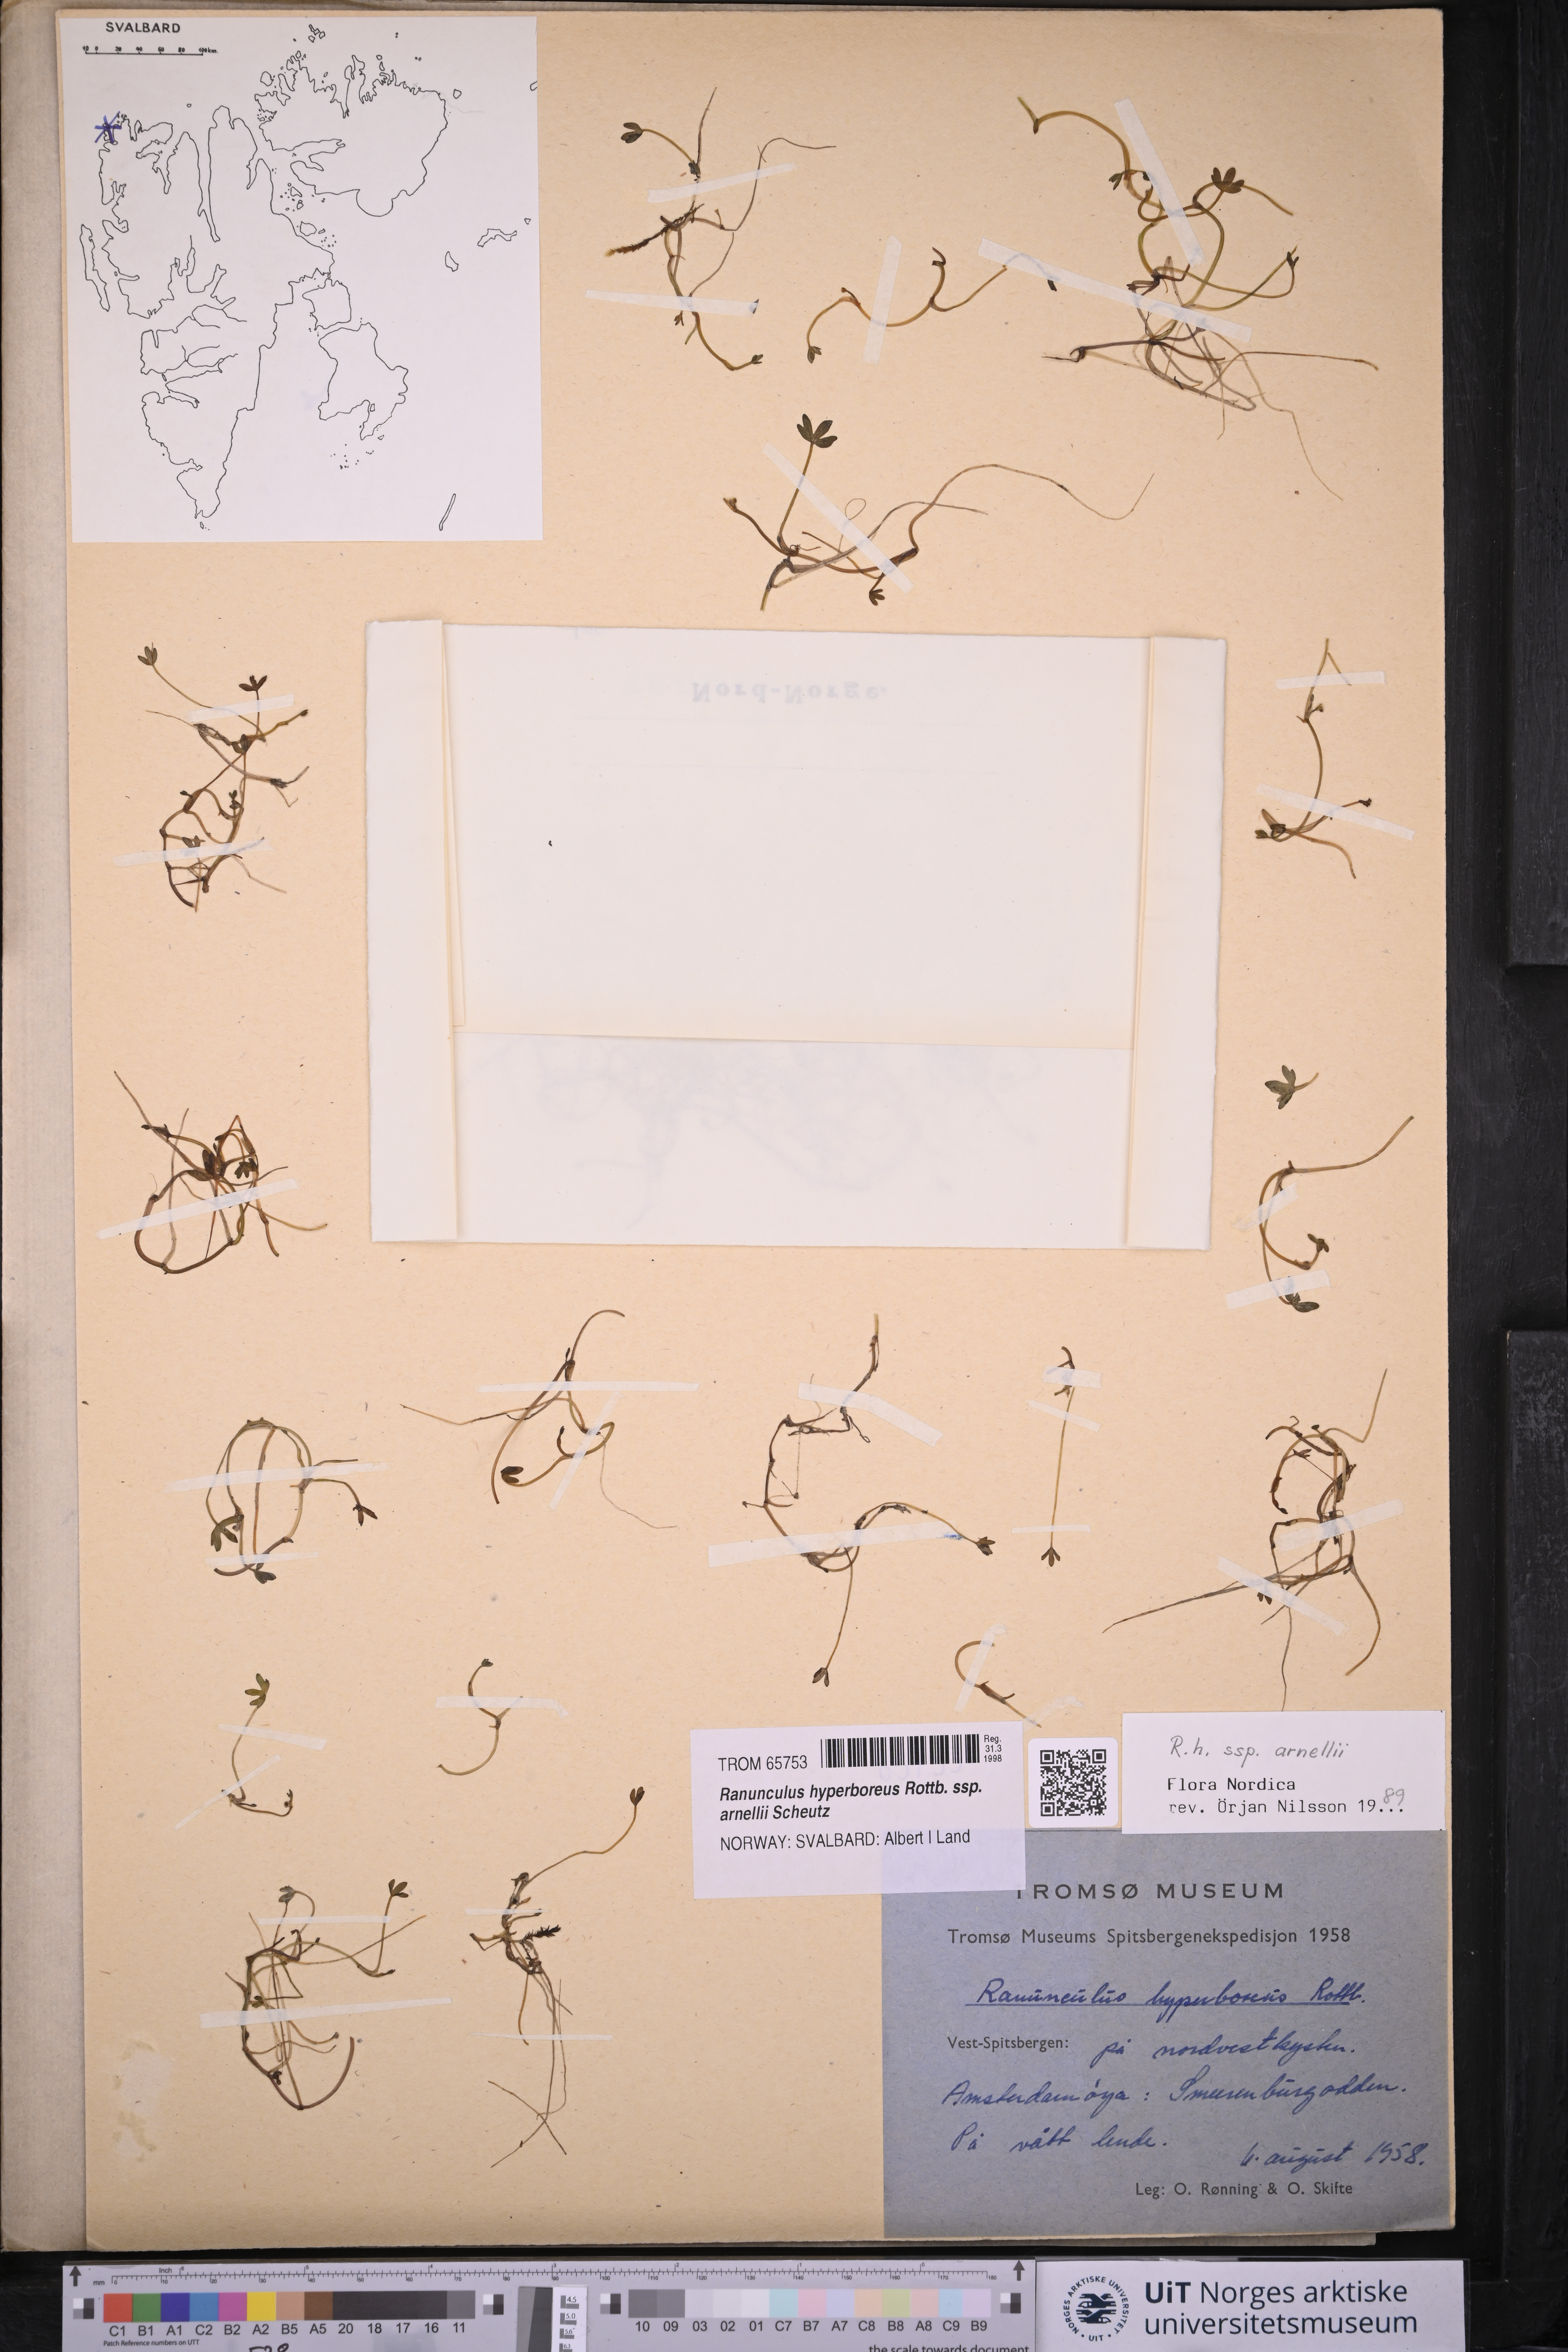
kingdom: Plantae
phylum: Tracheophyta
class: Magnoliopsida
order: Ranunculales
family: Ranunculaceae
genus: Ranunculus
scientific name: Ranunculus hyperboreus
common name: Arctic buttercup
